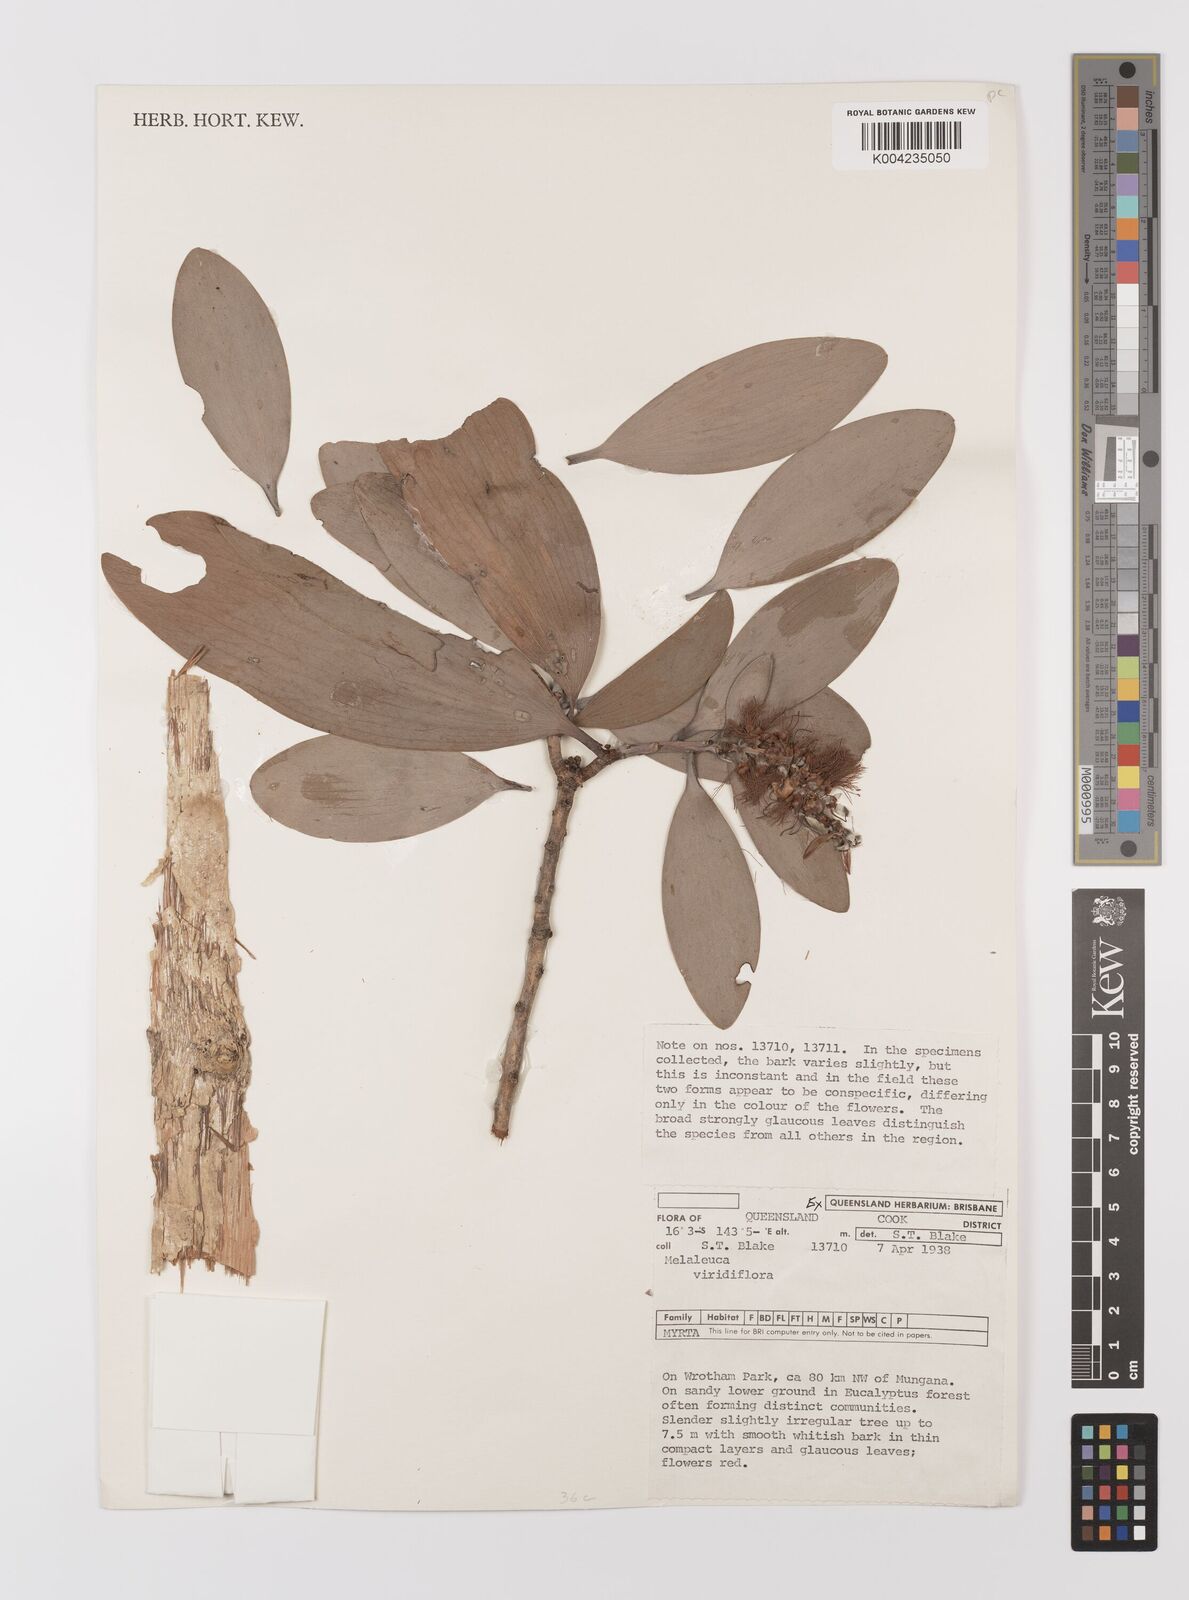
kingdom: Plantae
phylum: Tracheophyta
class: Magnoliopsida
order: Myrtales
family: Myrtaceae
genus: Melaleuca
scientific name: Melaleuca viridiflora
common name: Brown-leaved paperbark
